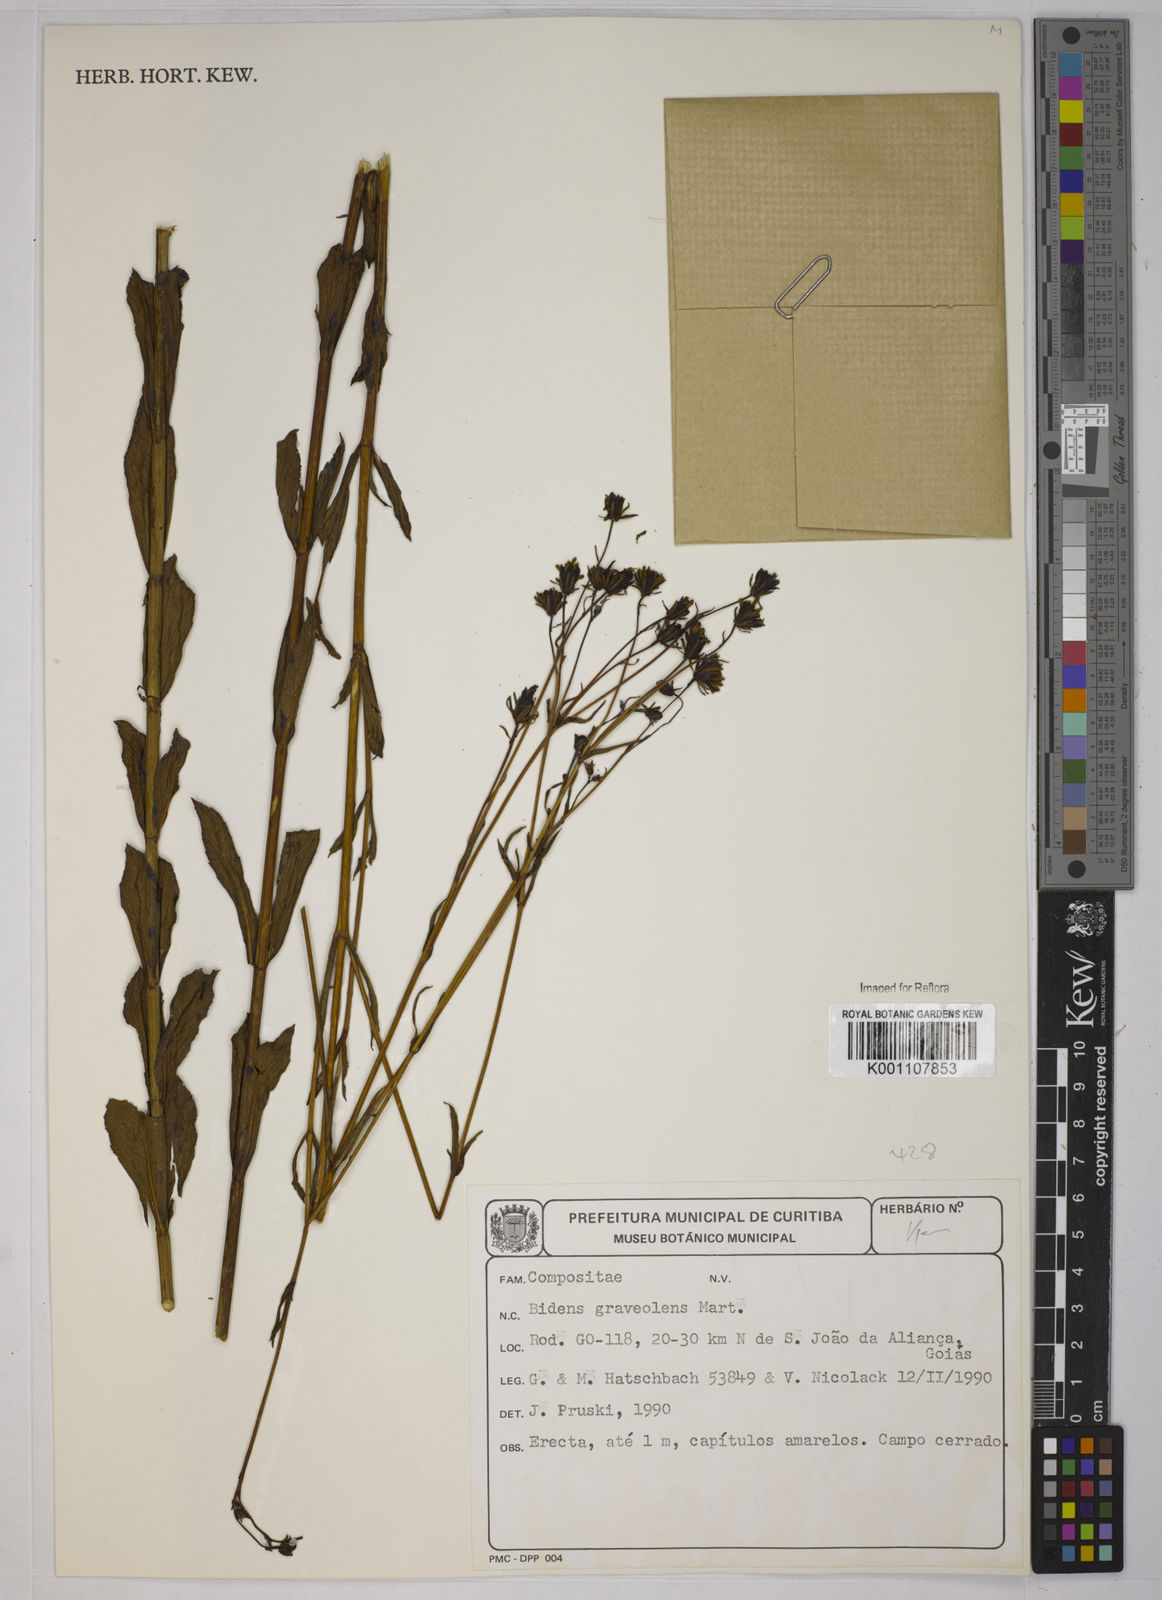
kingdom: Plantae
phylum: Tracheophyta
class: Magnoliopsida
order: Asterales
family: Asteraceae
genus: Bidens
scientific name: Bidens
